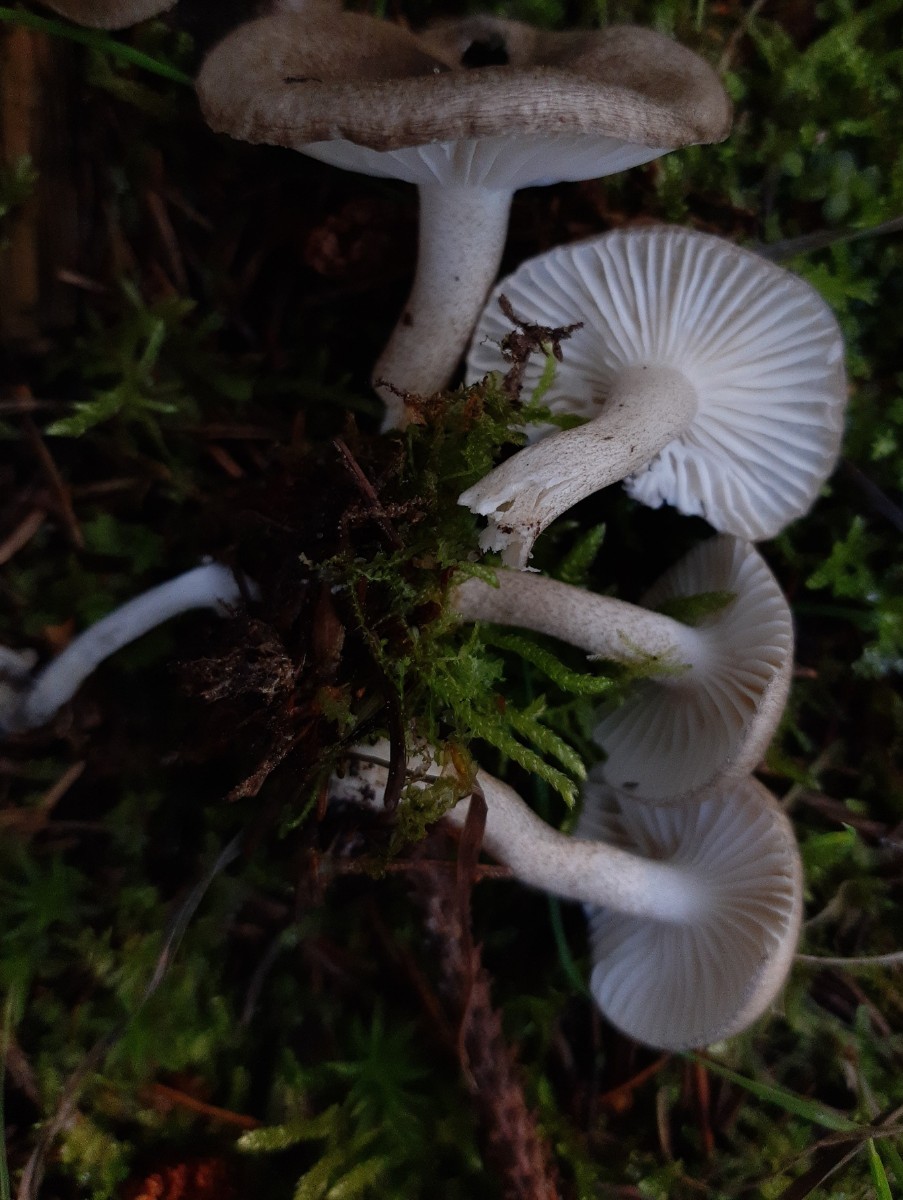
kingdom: Fungi
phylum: Basidiomycota
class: Agaricomycetes
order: Agaricales
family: Hygrophoraceae
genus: Hygrophorus
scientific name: Hygrophorus pustulatus
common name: mørkprikket sneglehat
